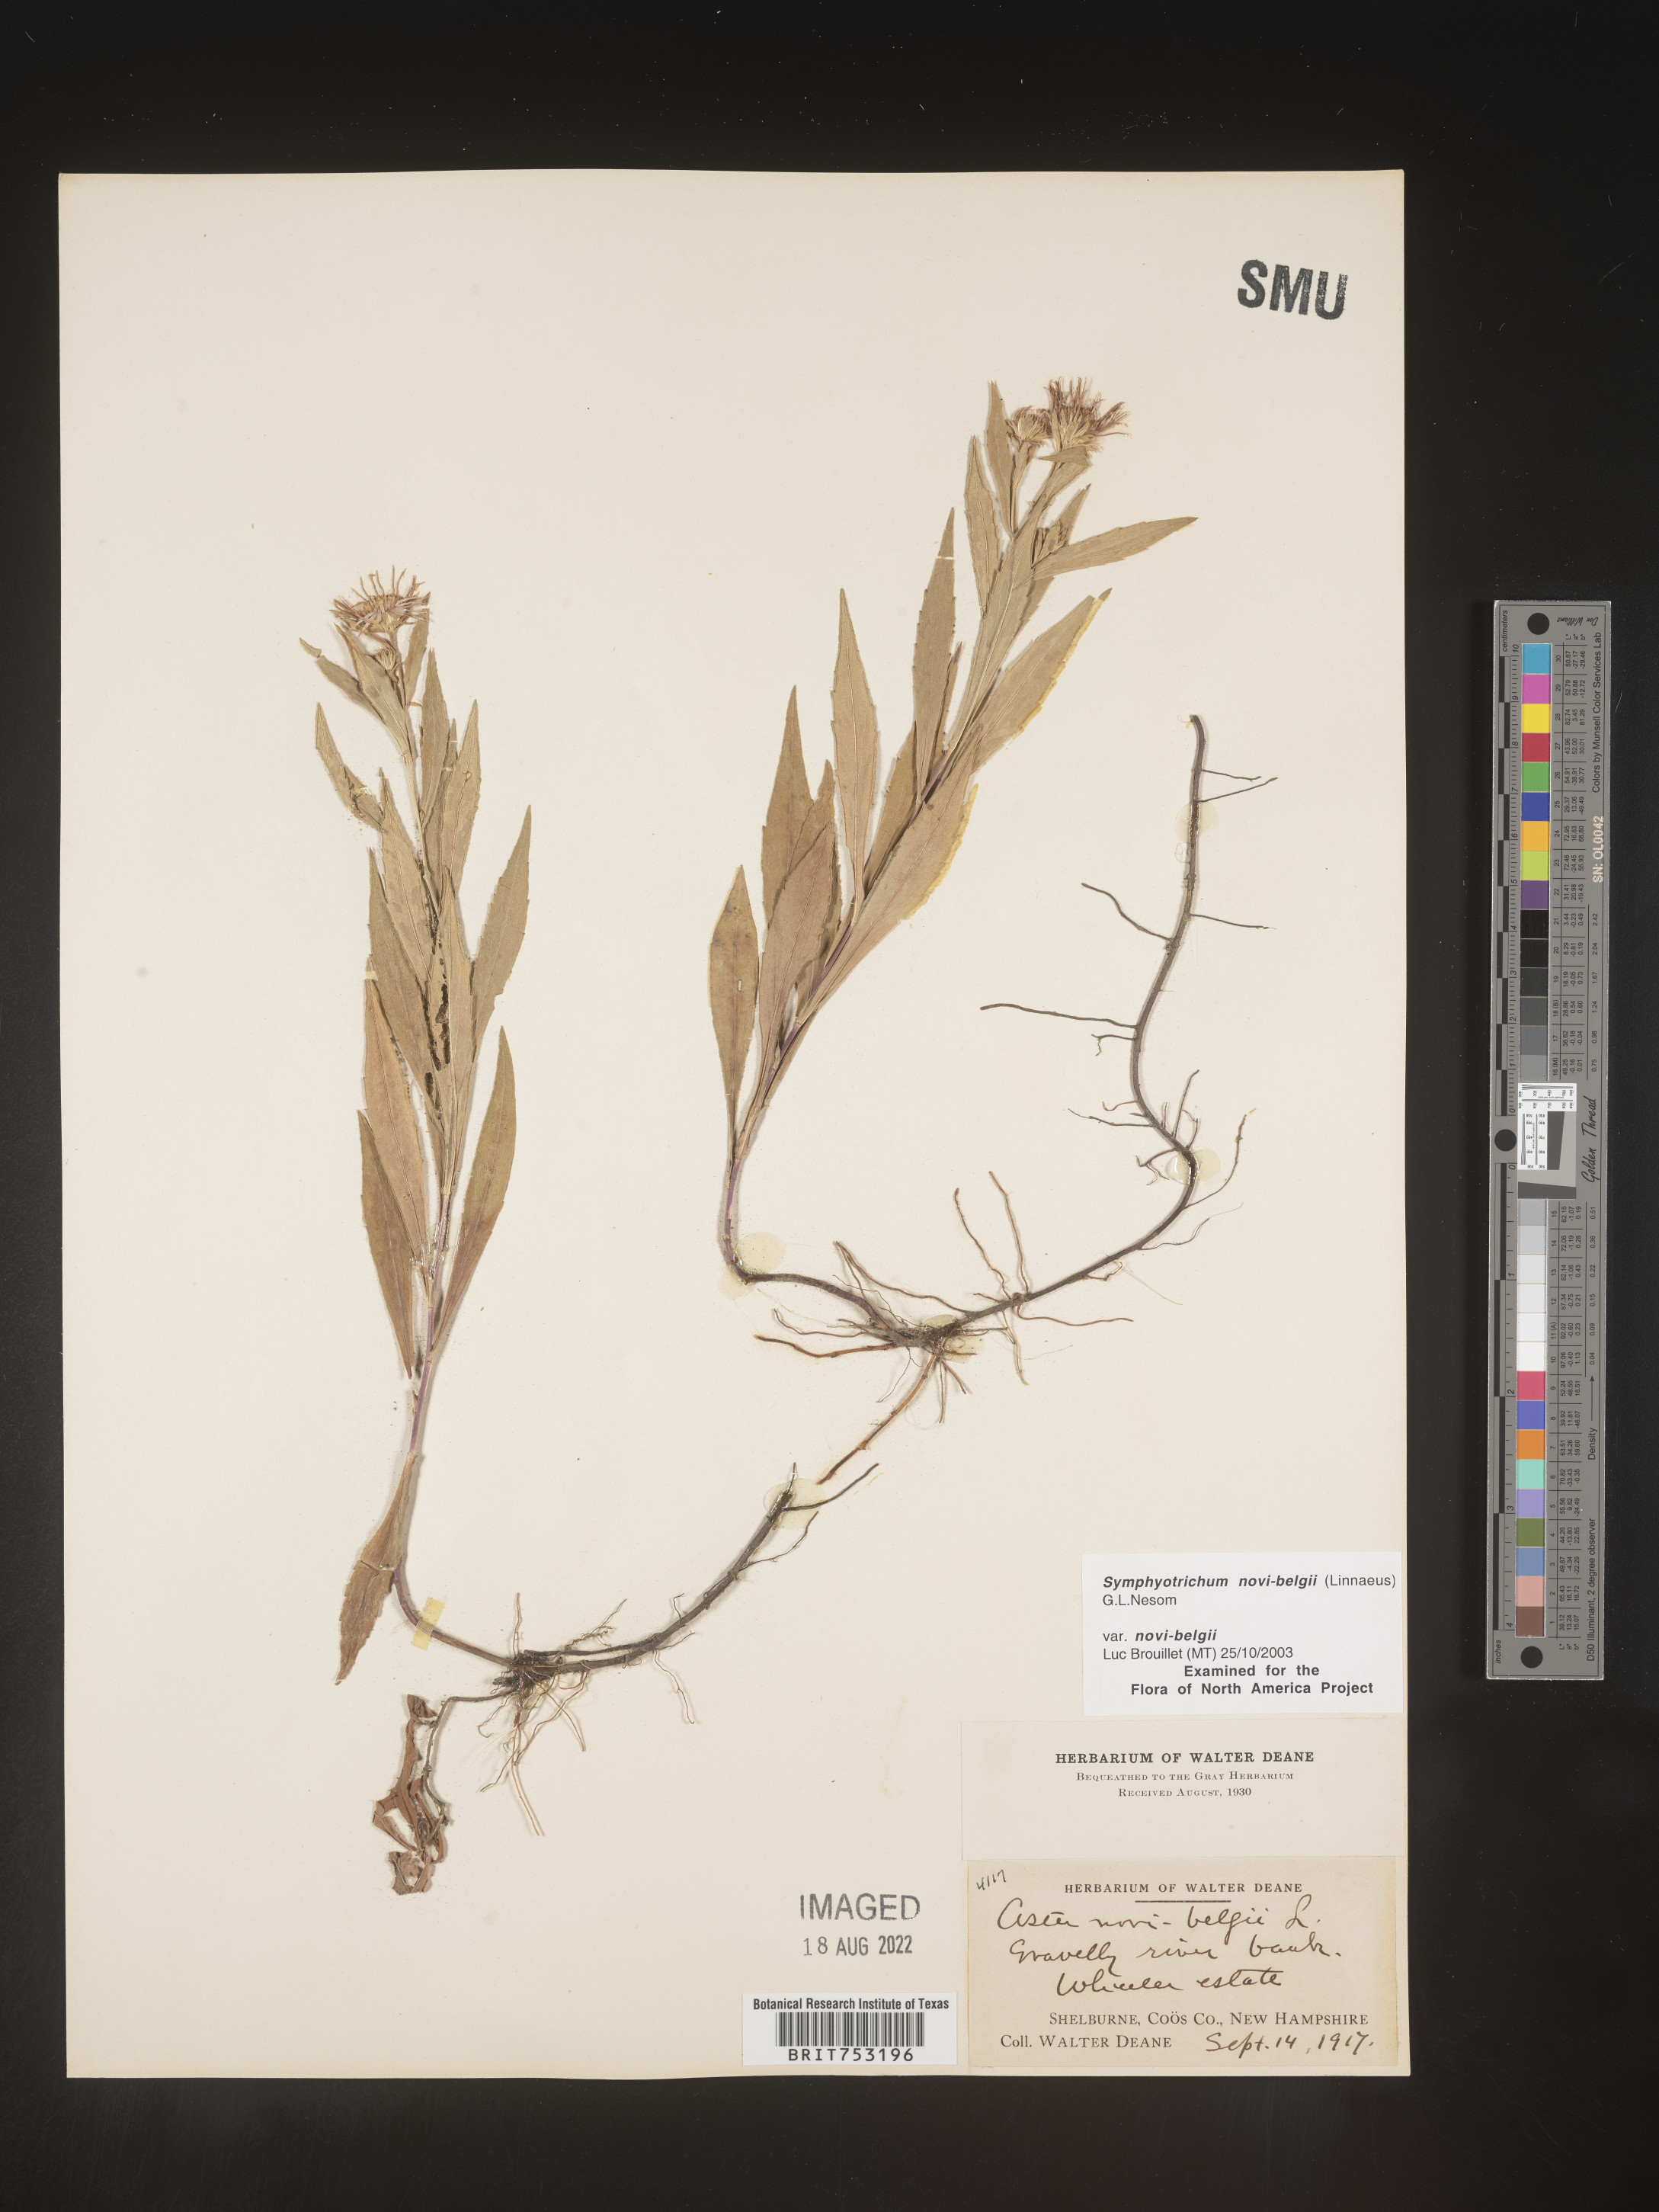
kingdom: Plantae
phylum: Tracheophyta
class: Magnoliopsida
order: Asterales
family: Asteraceae
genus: Symphyotrichum
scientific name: Symphyotrichum novi-belgii
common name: Michaelmas daisy
